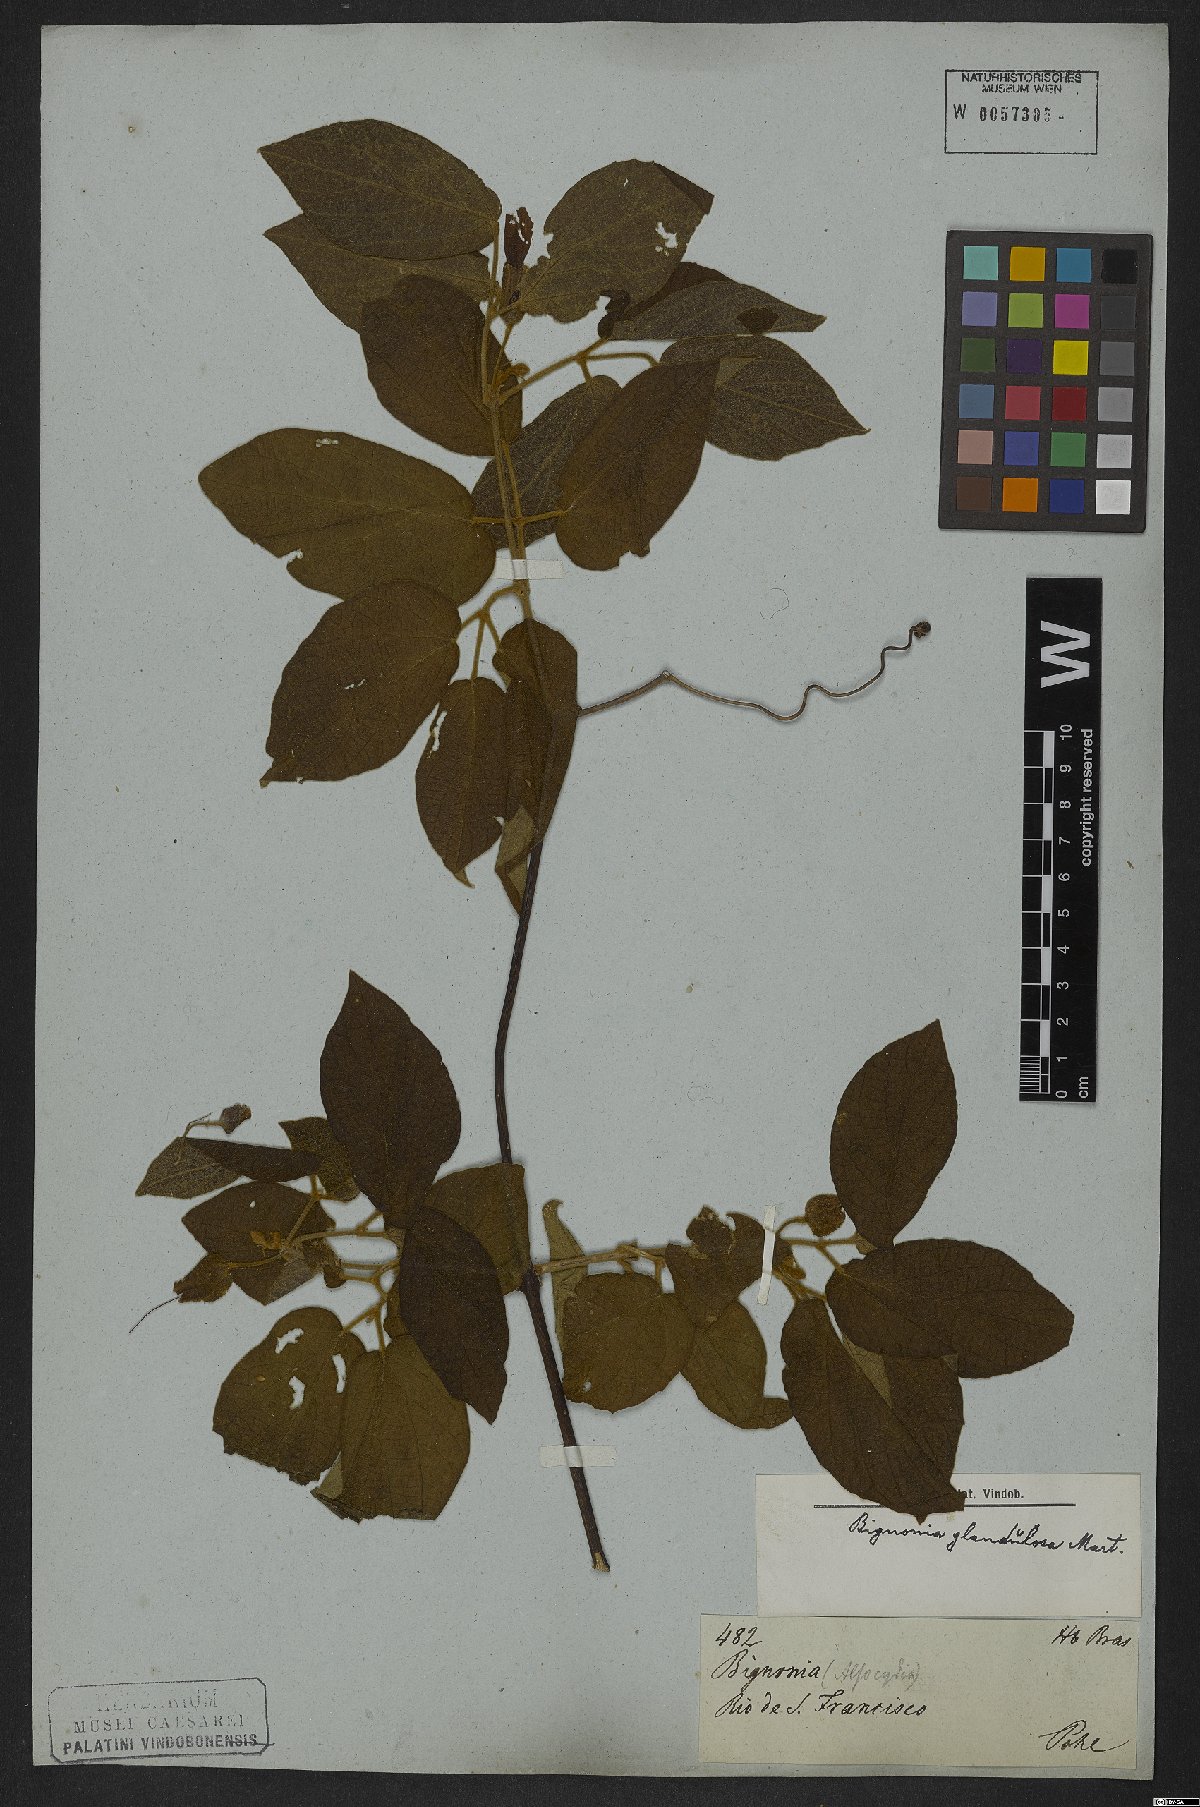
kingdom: Plantae
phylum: Tracheophyta
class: Magnoliopsida
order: Lamiales
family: Bignoniaceae
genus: Stizophyllum
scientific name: Stizophyllum perforatum
